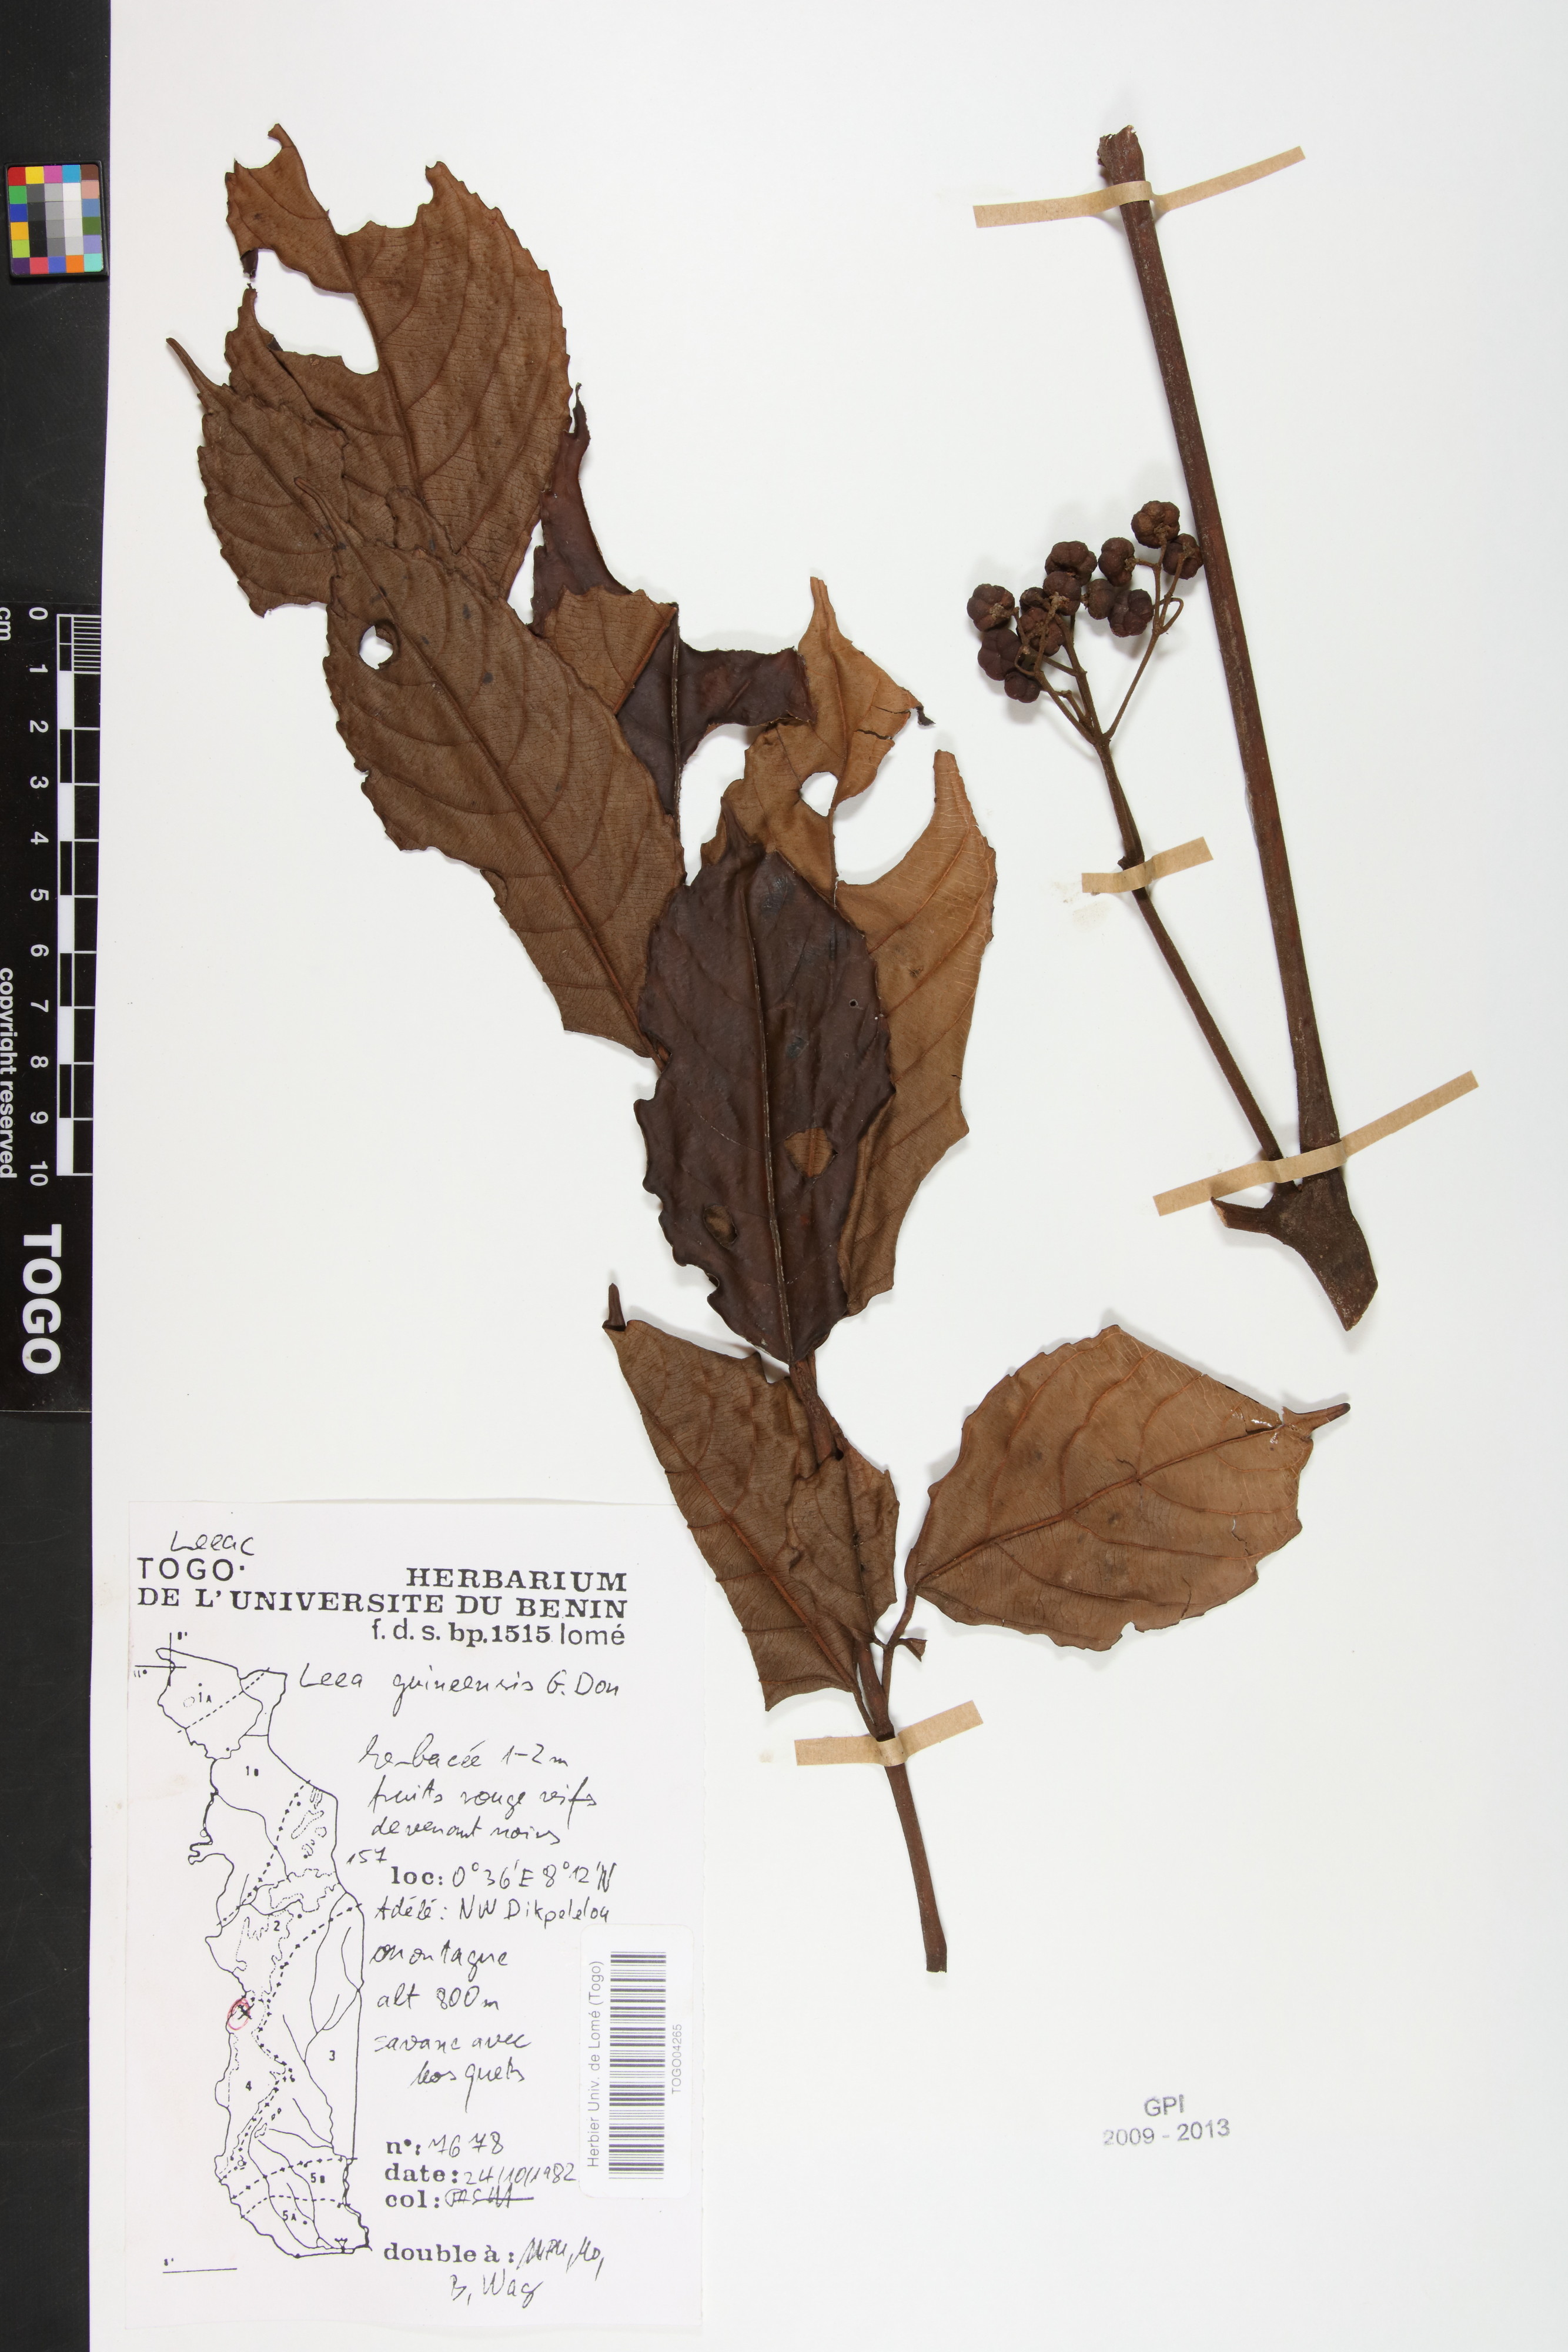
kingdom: Plantae
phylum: Tracheophyta
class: Magnoliopsida
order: Vitales
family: Vitaceae
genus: Leea
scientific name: Leea guineensis
